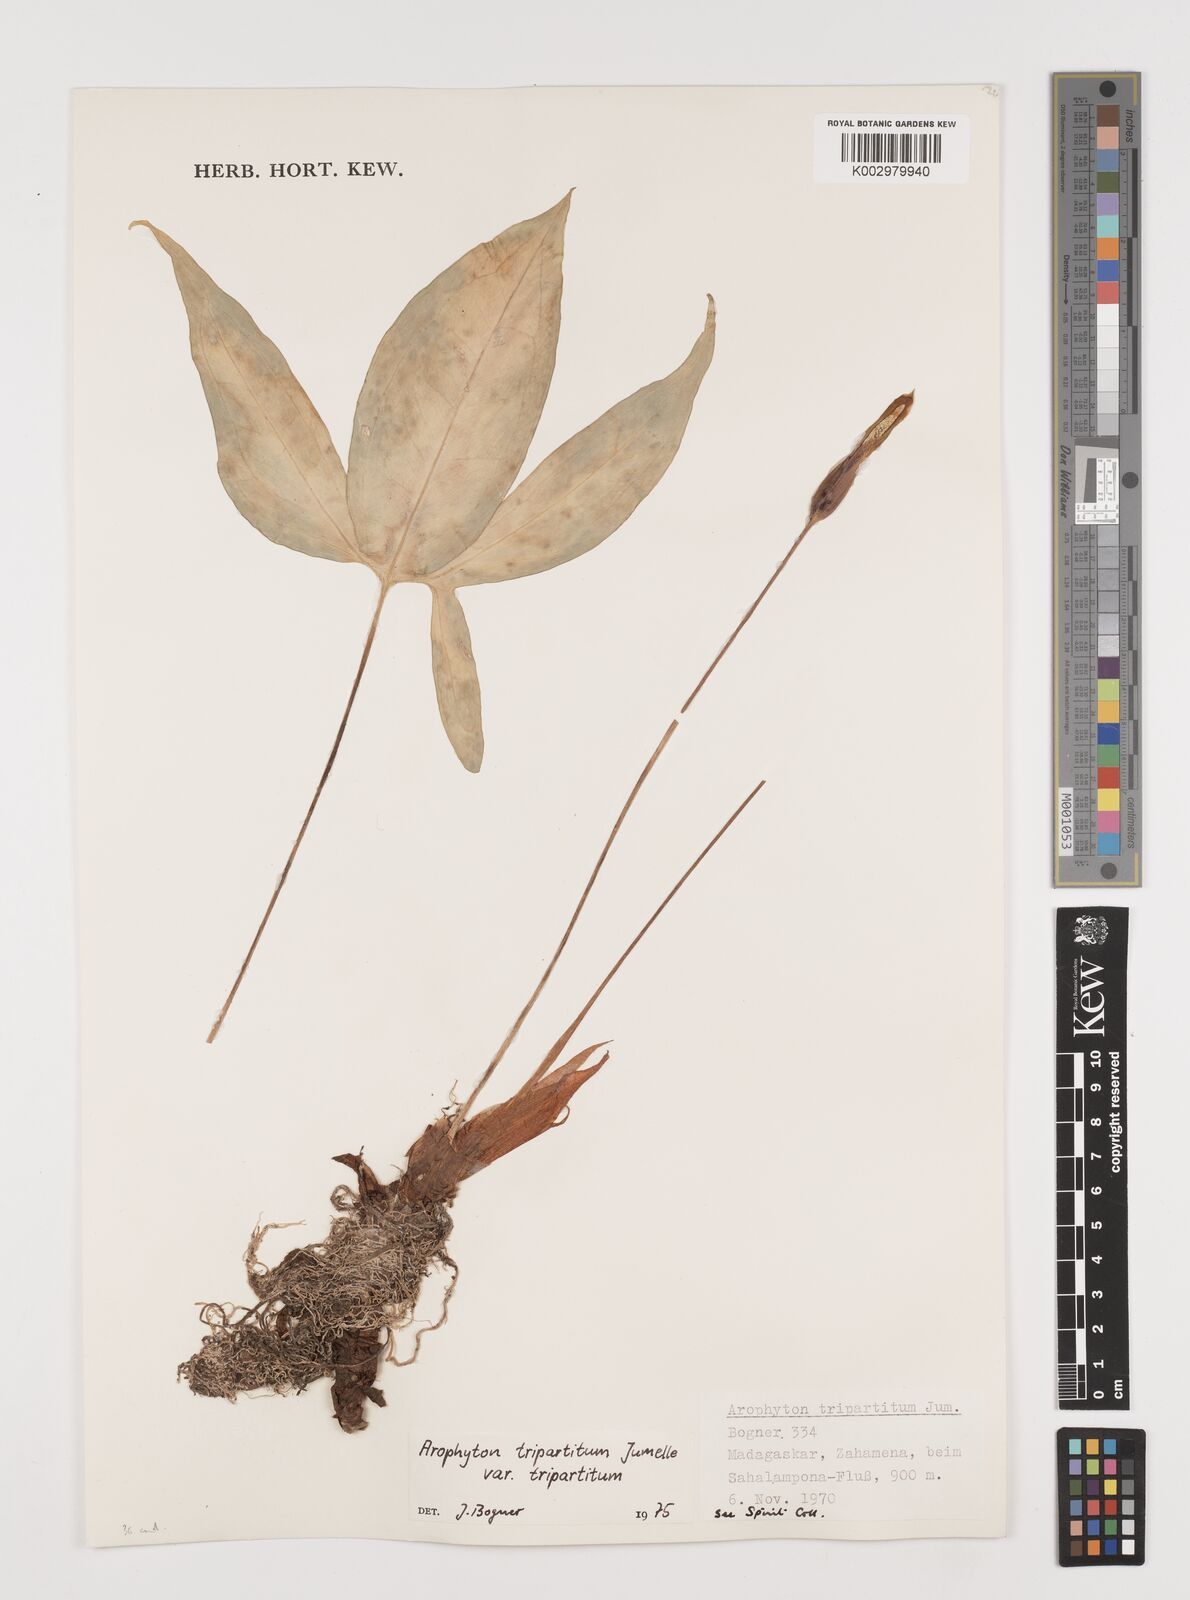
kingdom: Plantae
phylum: Tracheophyta
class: Liliopsida
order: Alismatales
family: Araceae
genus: Arophyton
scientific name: Arophyton tripartitum
